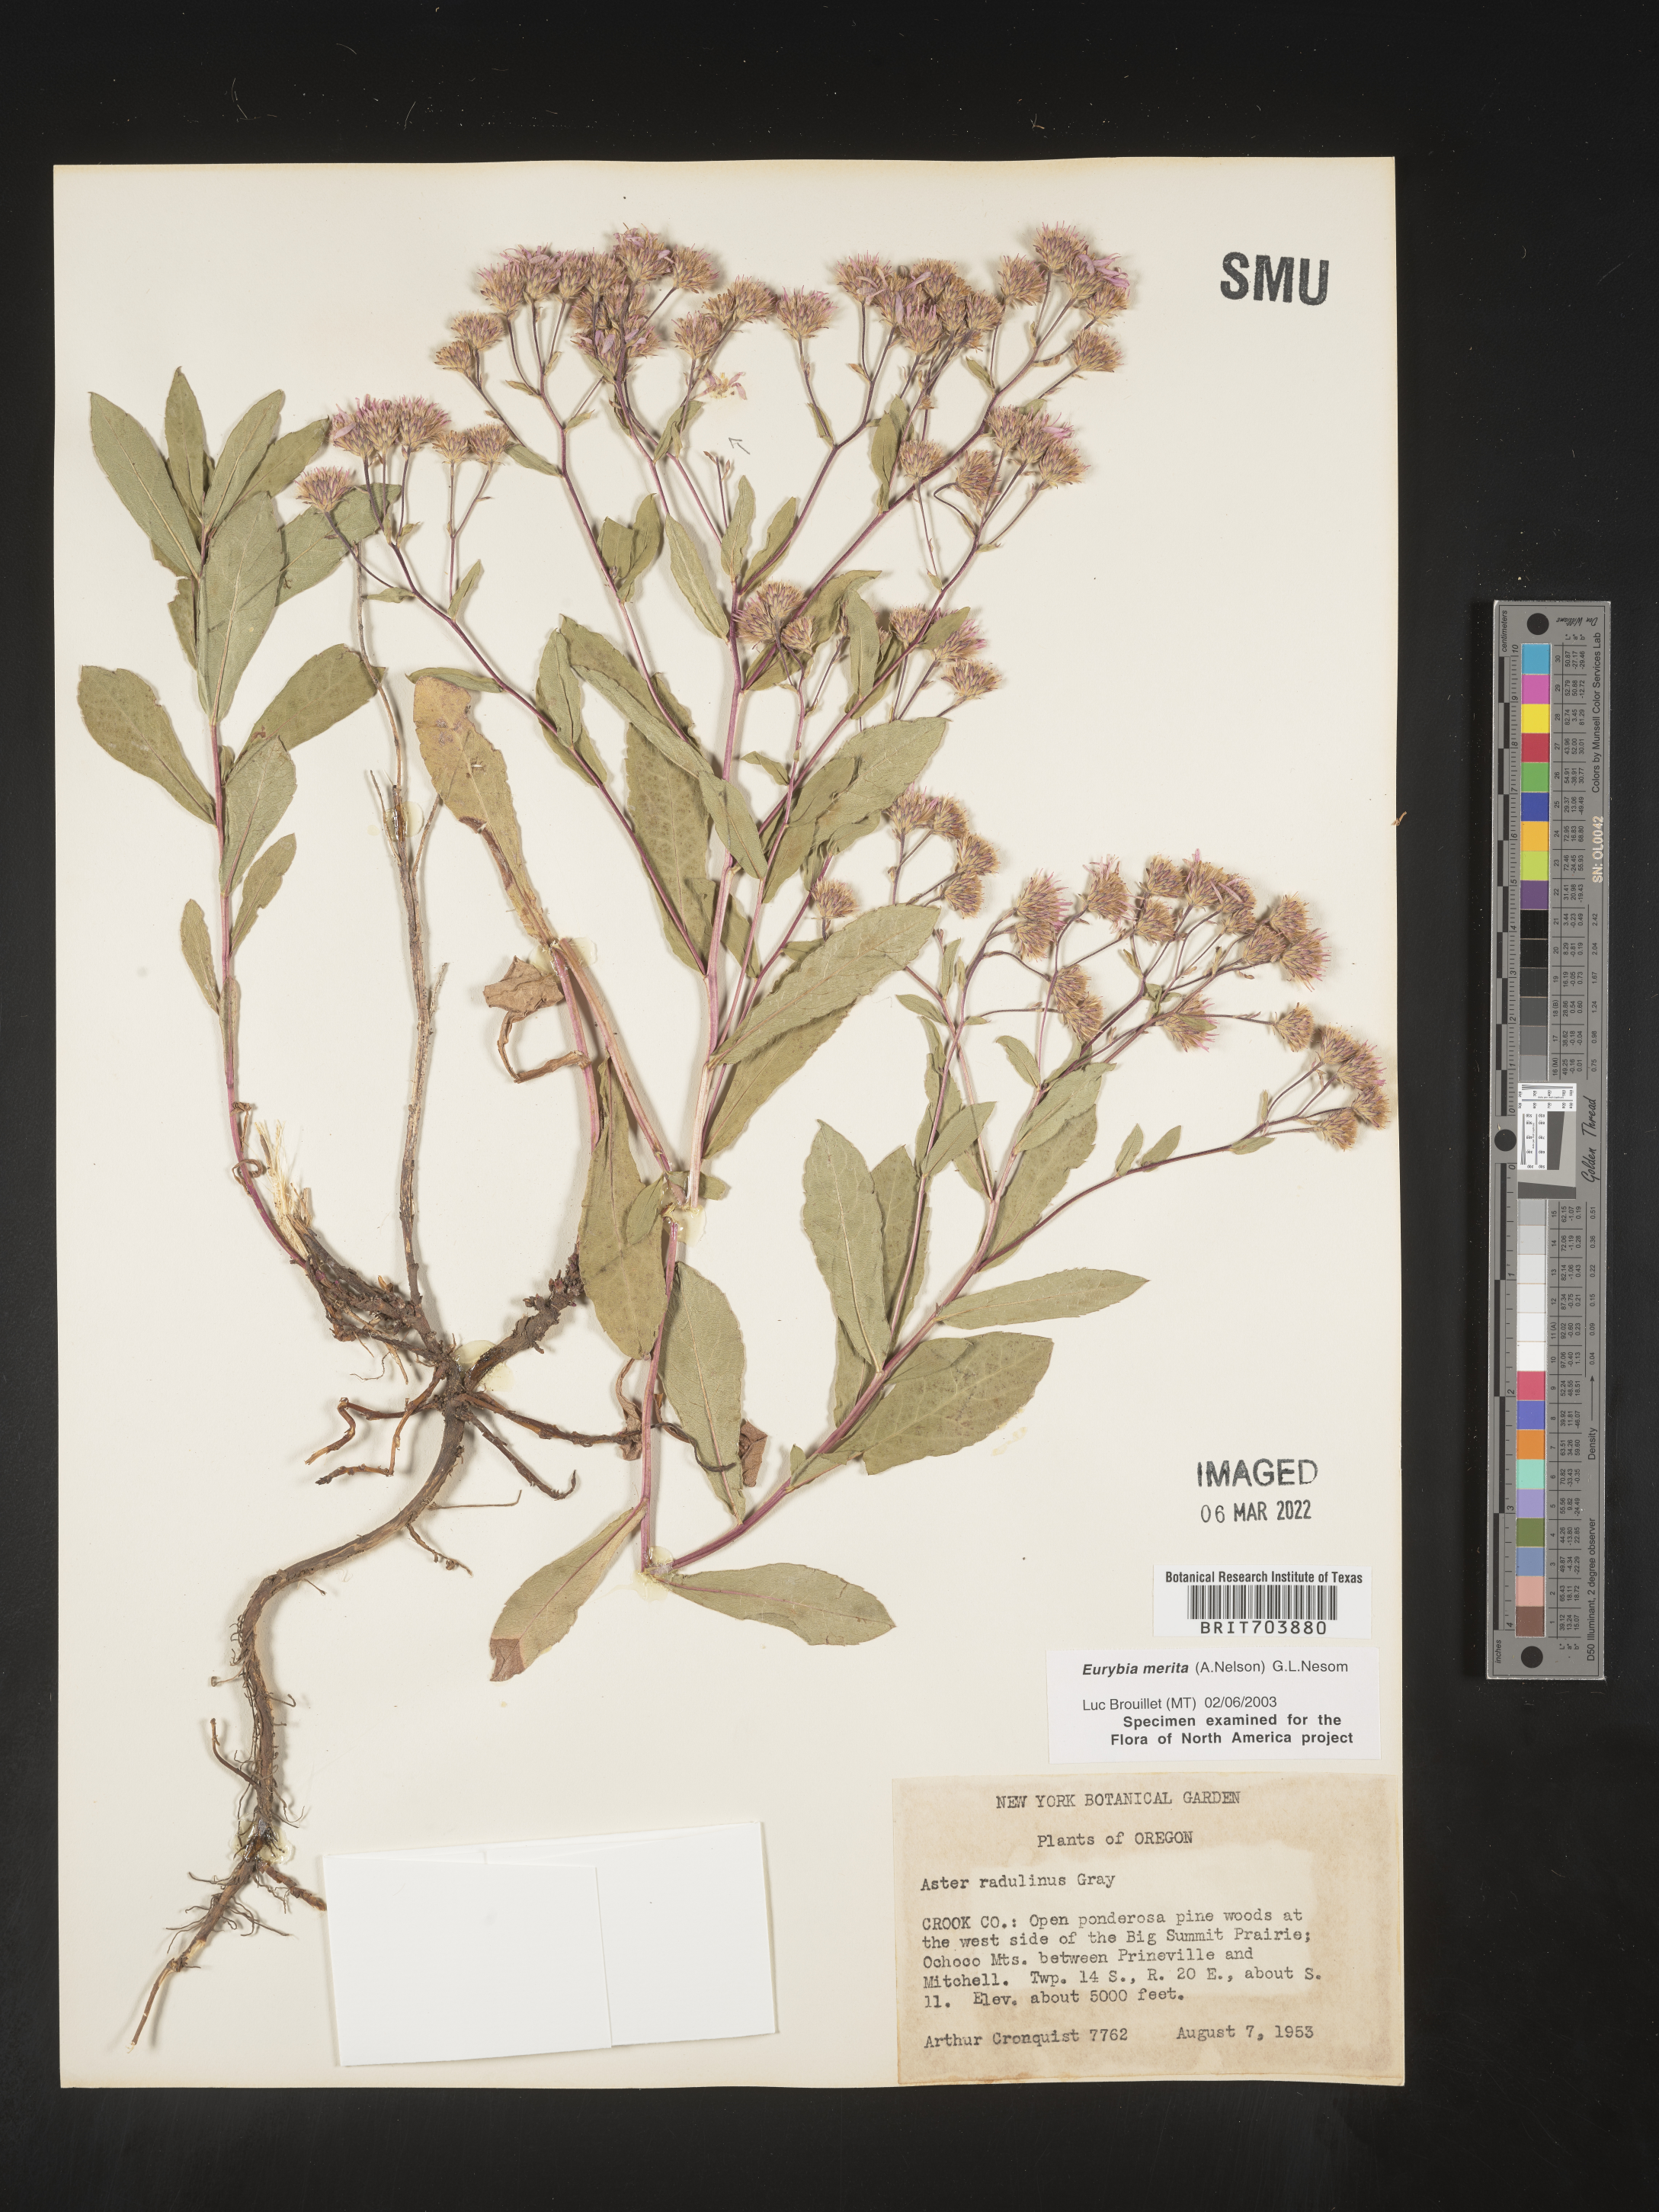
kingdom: Plantae
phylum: Tracheophyta
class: Magnoliopsida
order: Asterales
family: Asteraceae
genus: Eurybia
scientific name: Eurybia merita
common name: Arctic aster
